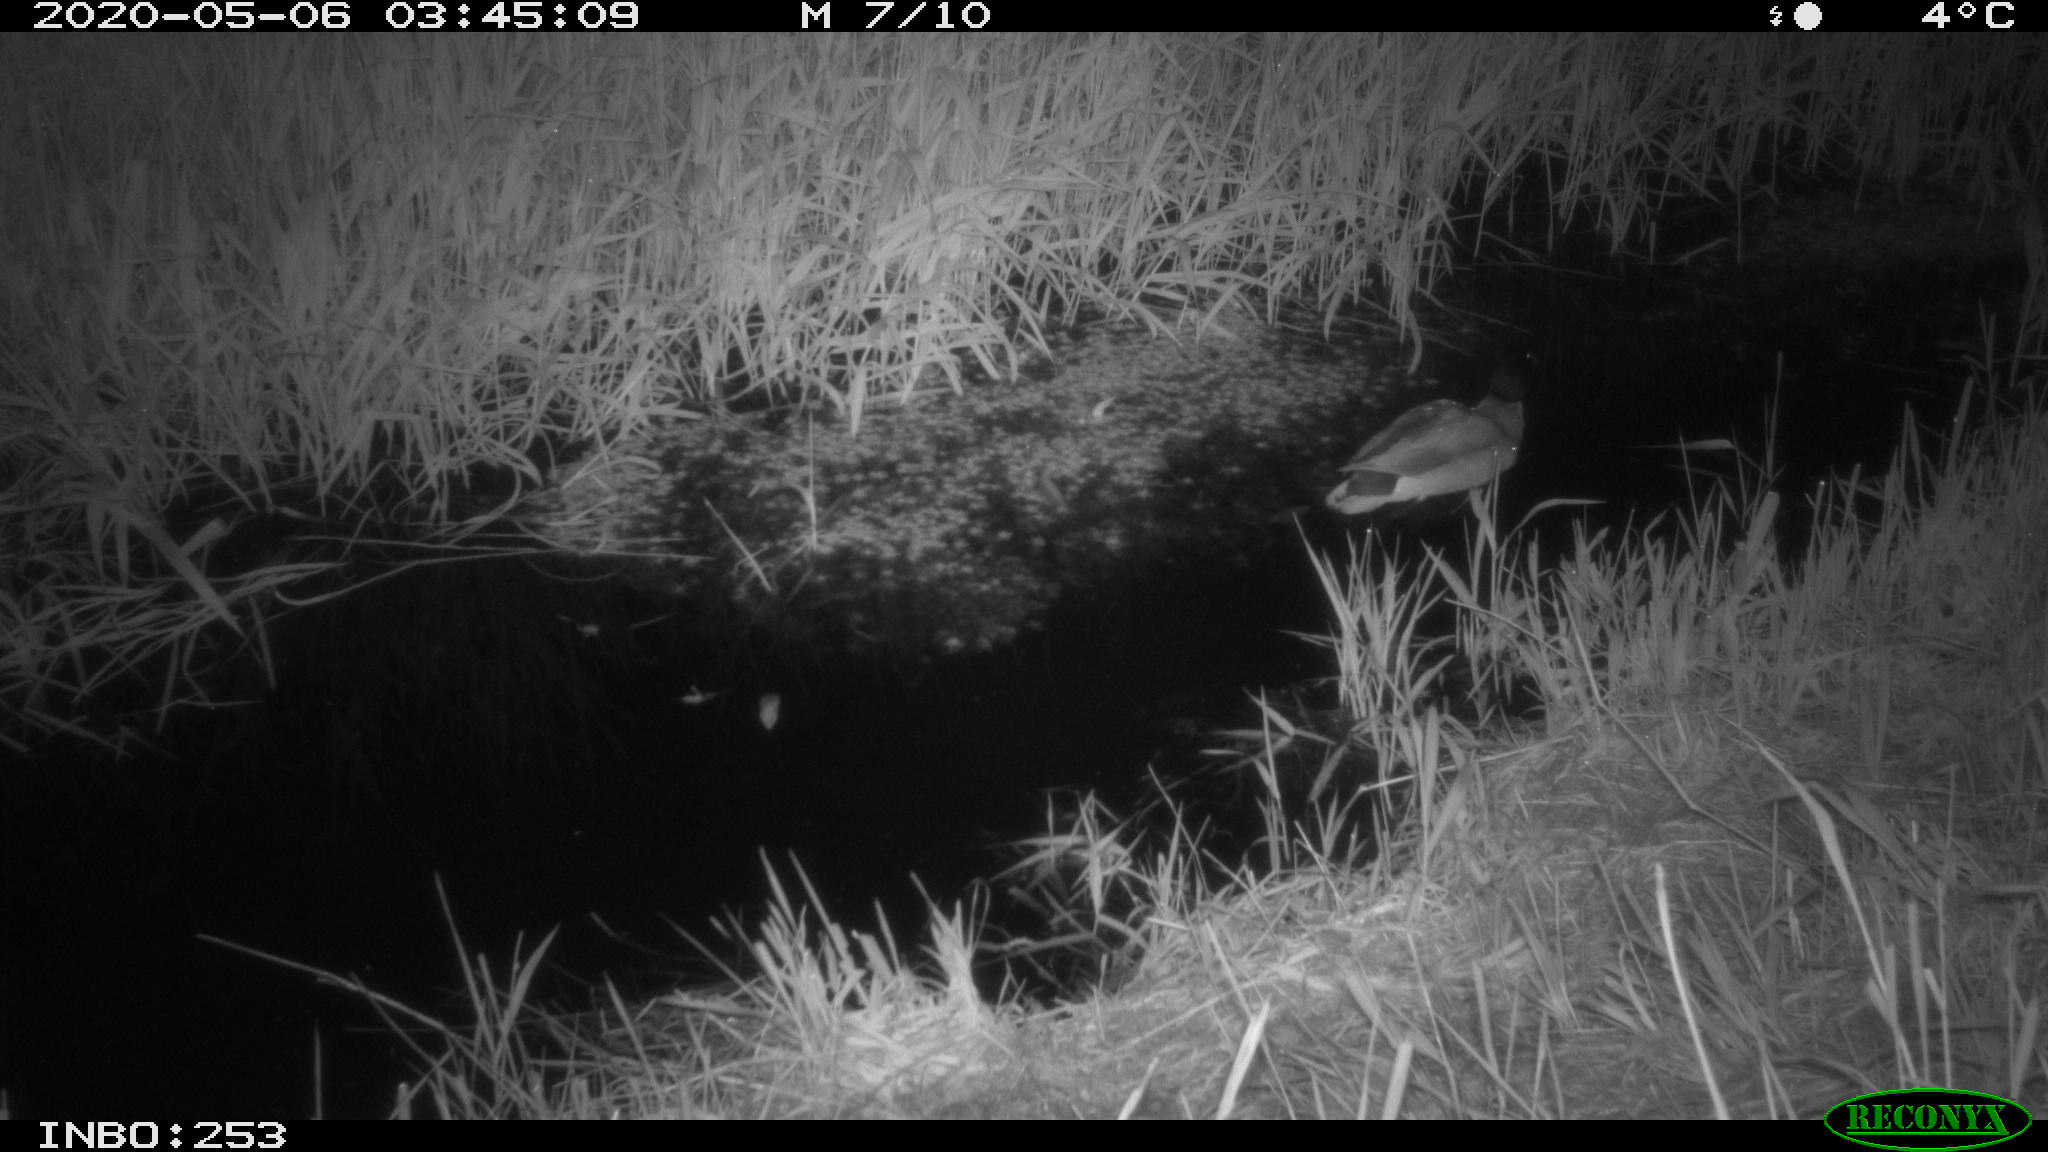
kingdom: Animalia
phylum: Chordata
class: Aves
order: Anseriformes
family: Anatidae
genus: Anas
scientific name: Anas platyrhynchos
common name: Mallard
